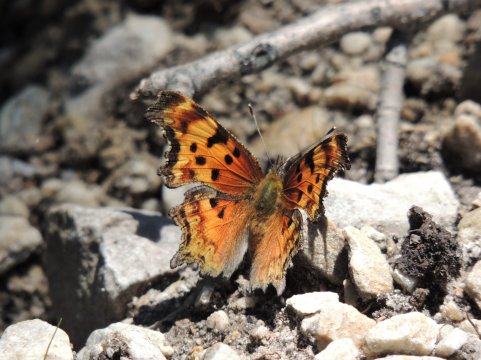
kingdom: Animalia
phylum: Arthropoda
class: Insecta
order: Lepidoptera
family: Nymphalidae
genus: Polygonia
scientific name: Polygonia gracilis
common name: Hoary Comma
